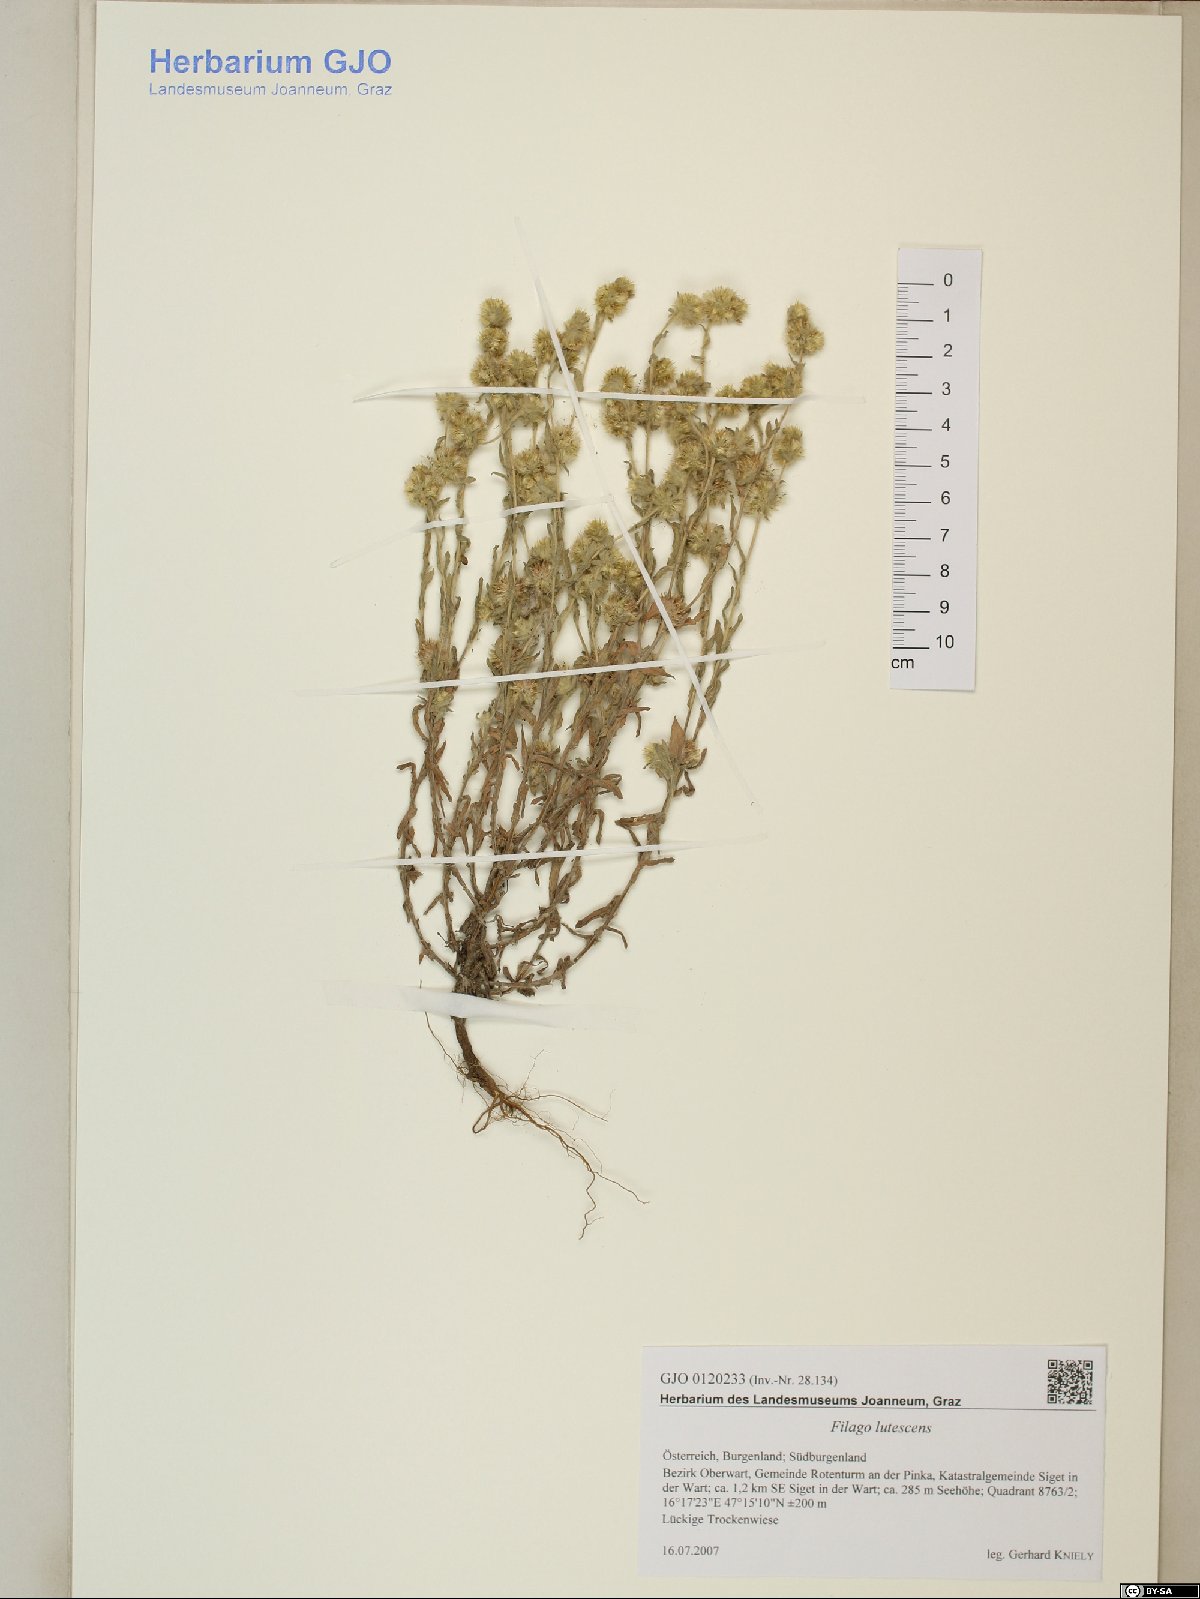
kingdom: Plantae
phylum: Tracheophyta
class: Magnoliopsida
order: Asterales
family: Asteraceae
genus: Filago
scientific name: Filago lutescens
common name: Red-tipped cudweed
